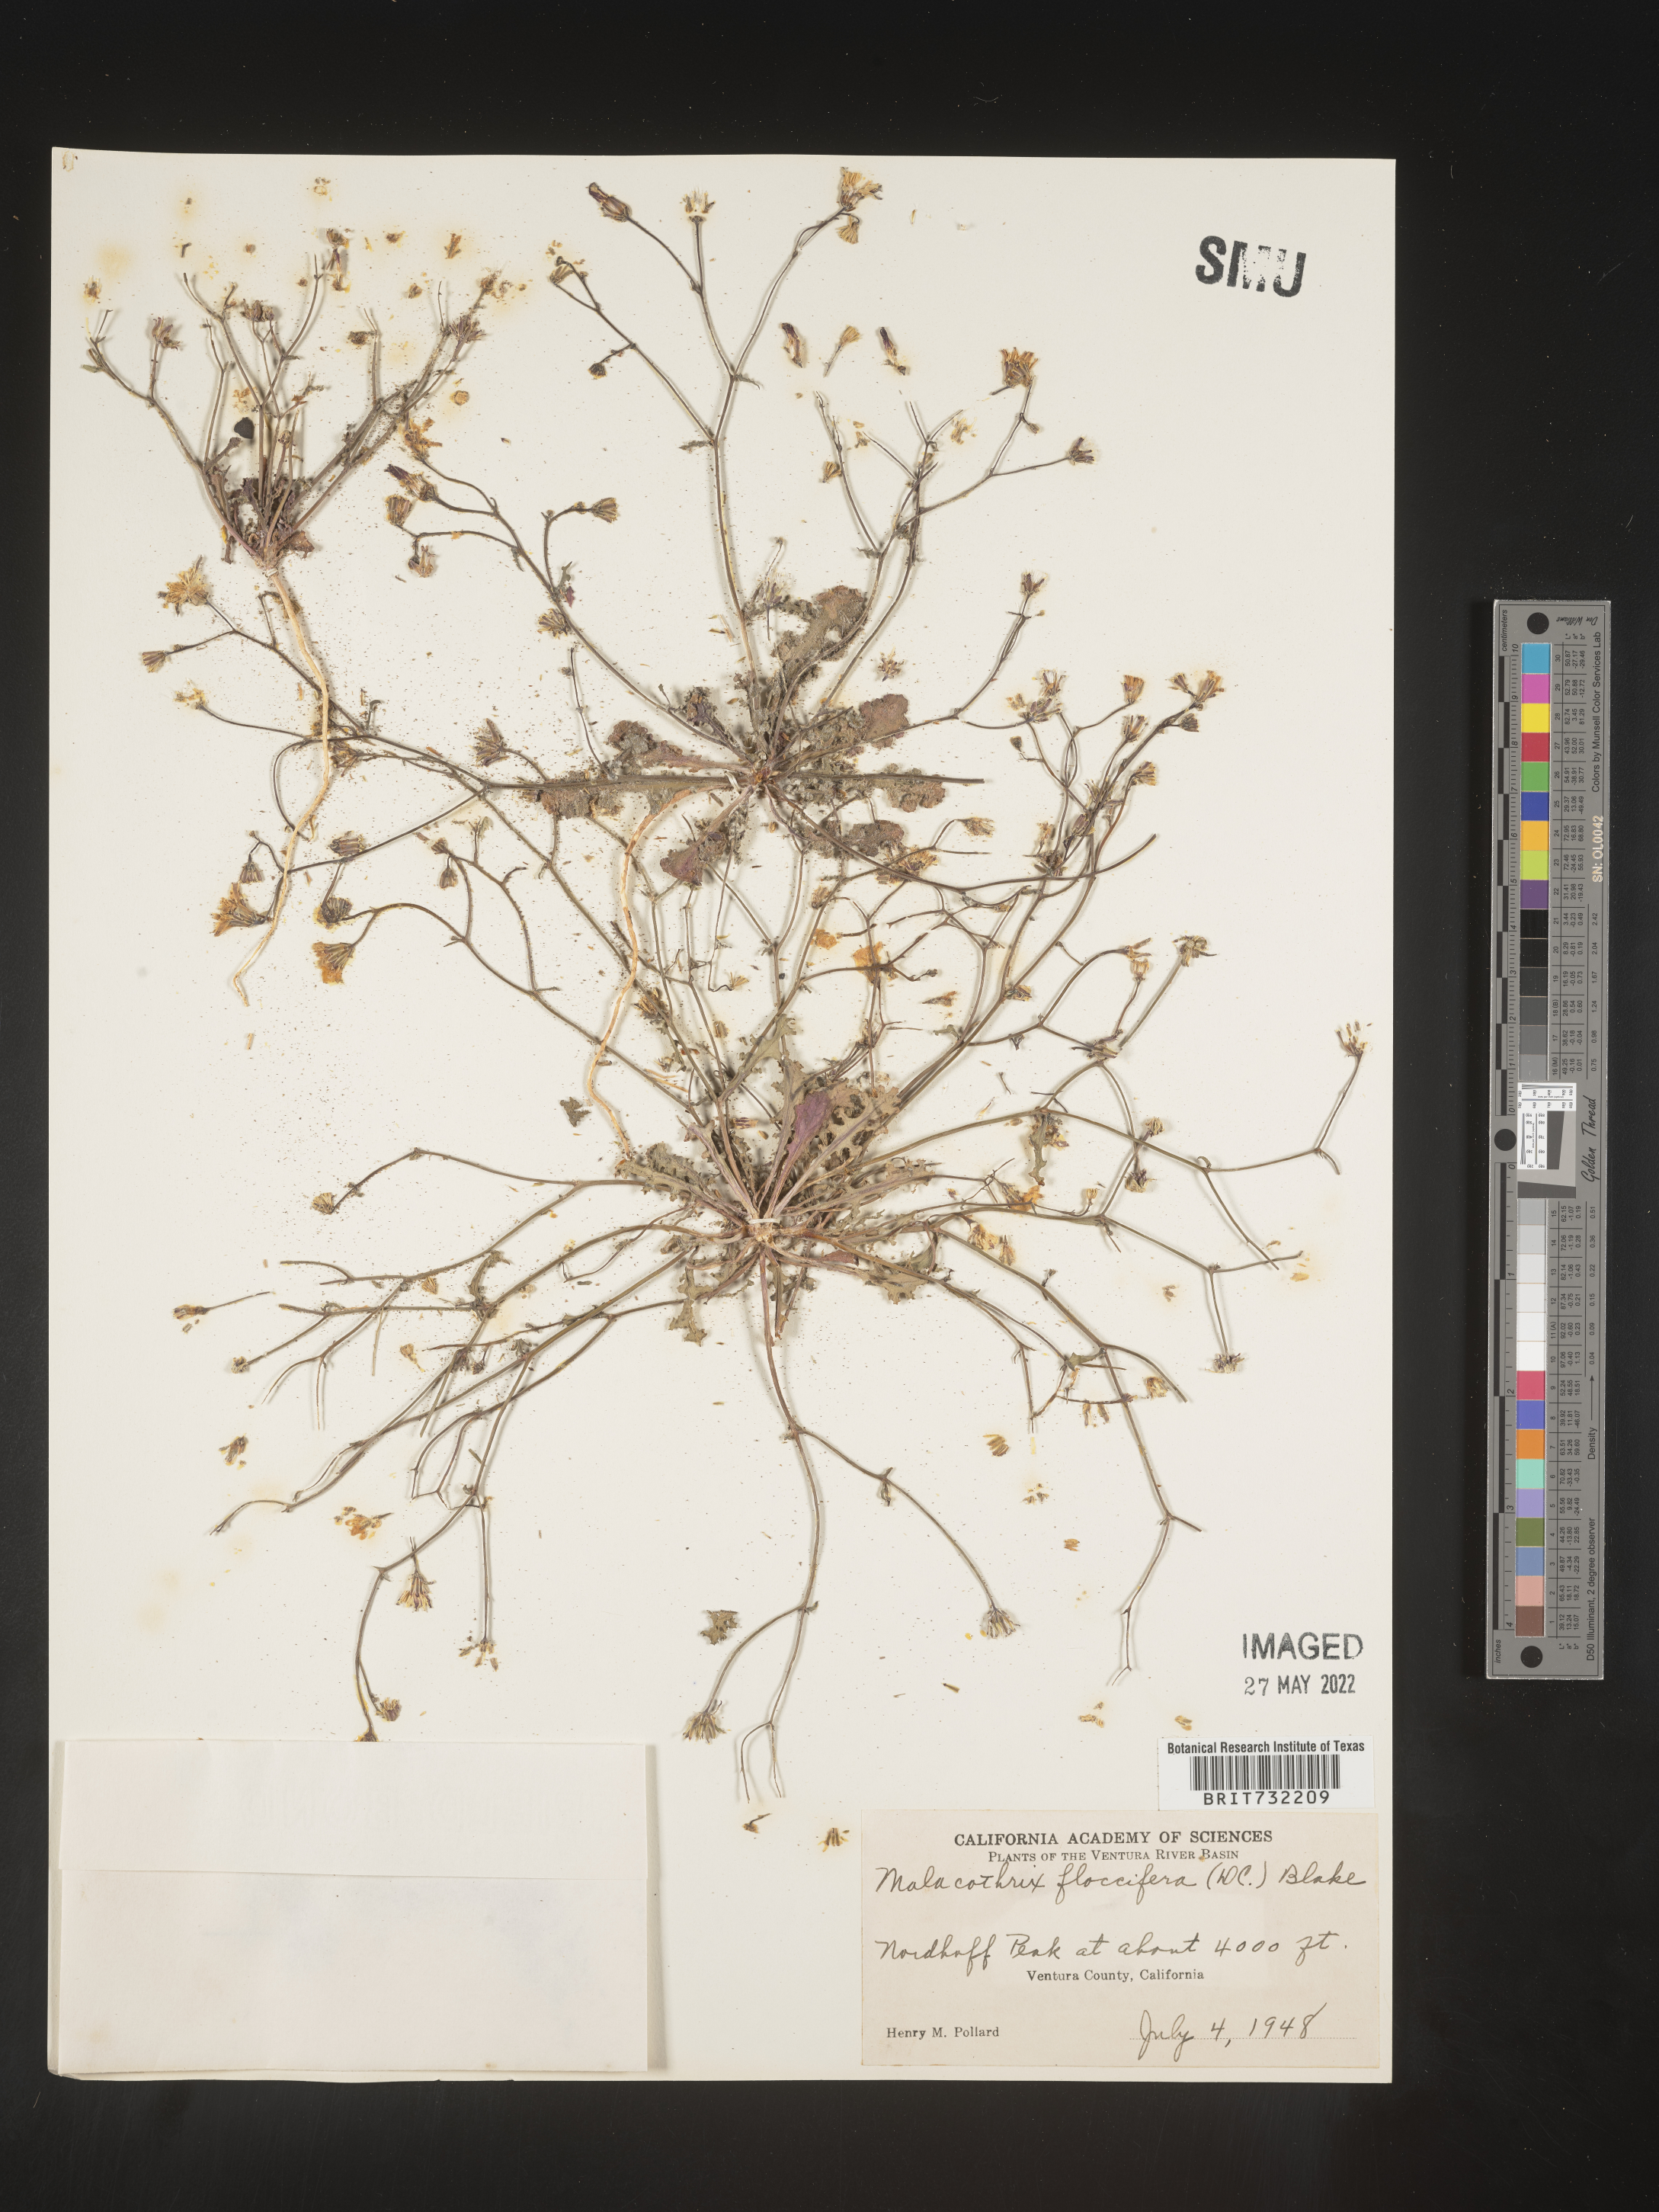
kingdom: Plantae
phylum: Tracheophyta
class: Magnoliopsida
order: Asterales
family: Asteraceae
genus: Malacothrix
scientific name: Malacothrix
